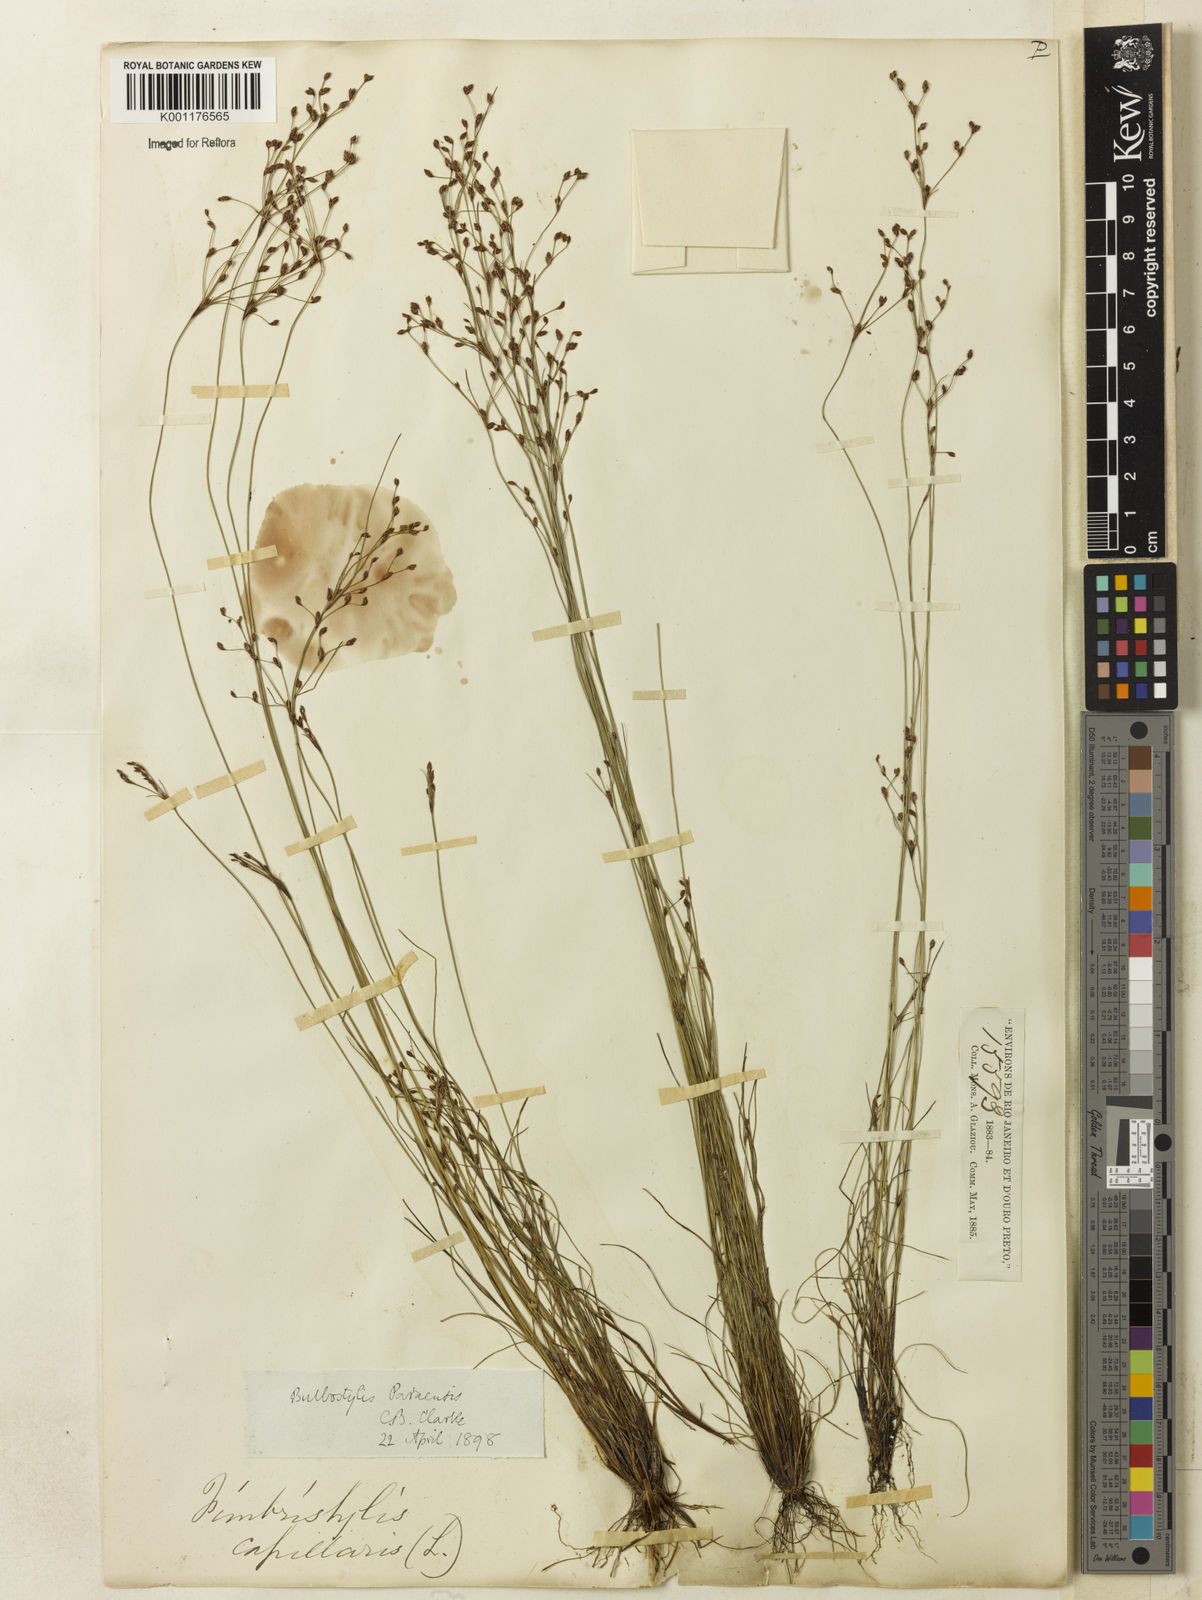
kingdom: Plantae
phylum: Tracheophyta
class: Liliopsida
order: Poales
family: Cyperaceae
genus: Bulbostylis
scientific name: Bulbostylis paraensis
